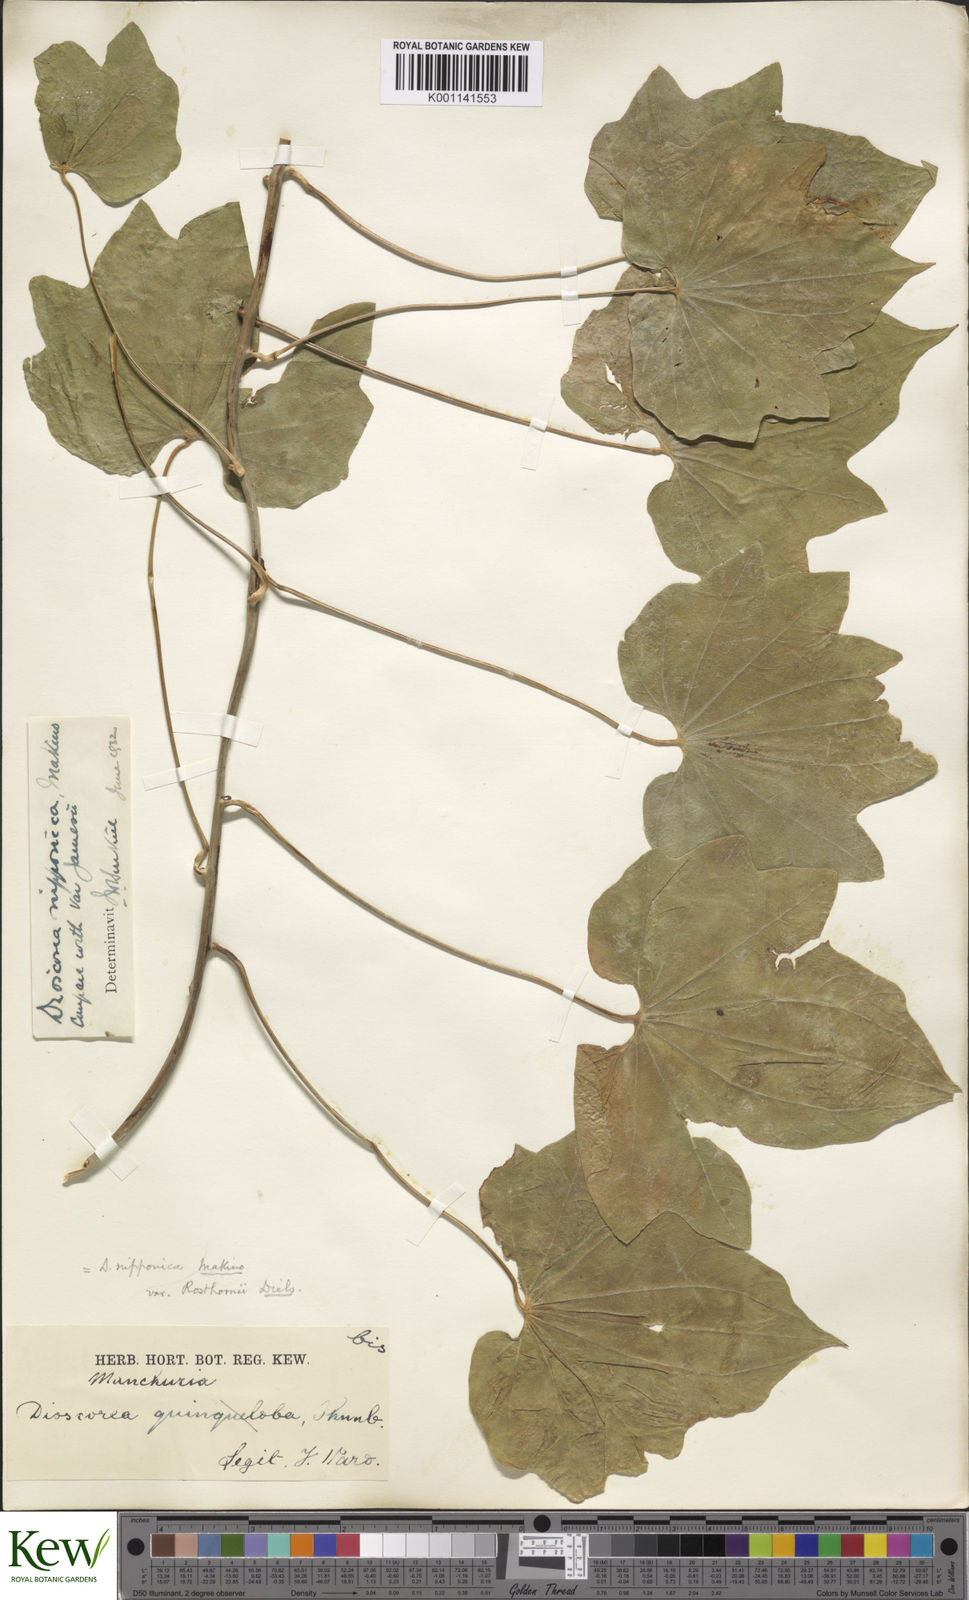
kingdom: Plantae
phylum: Tracheophyta
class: Liliopsida
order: Dioscoreales
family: Dioscoreaceae
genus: Dioscorea
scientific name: Dioscorea nipponica
